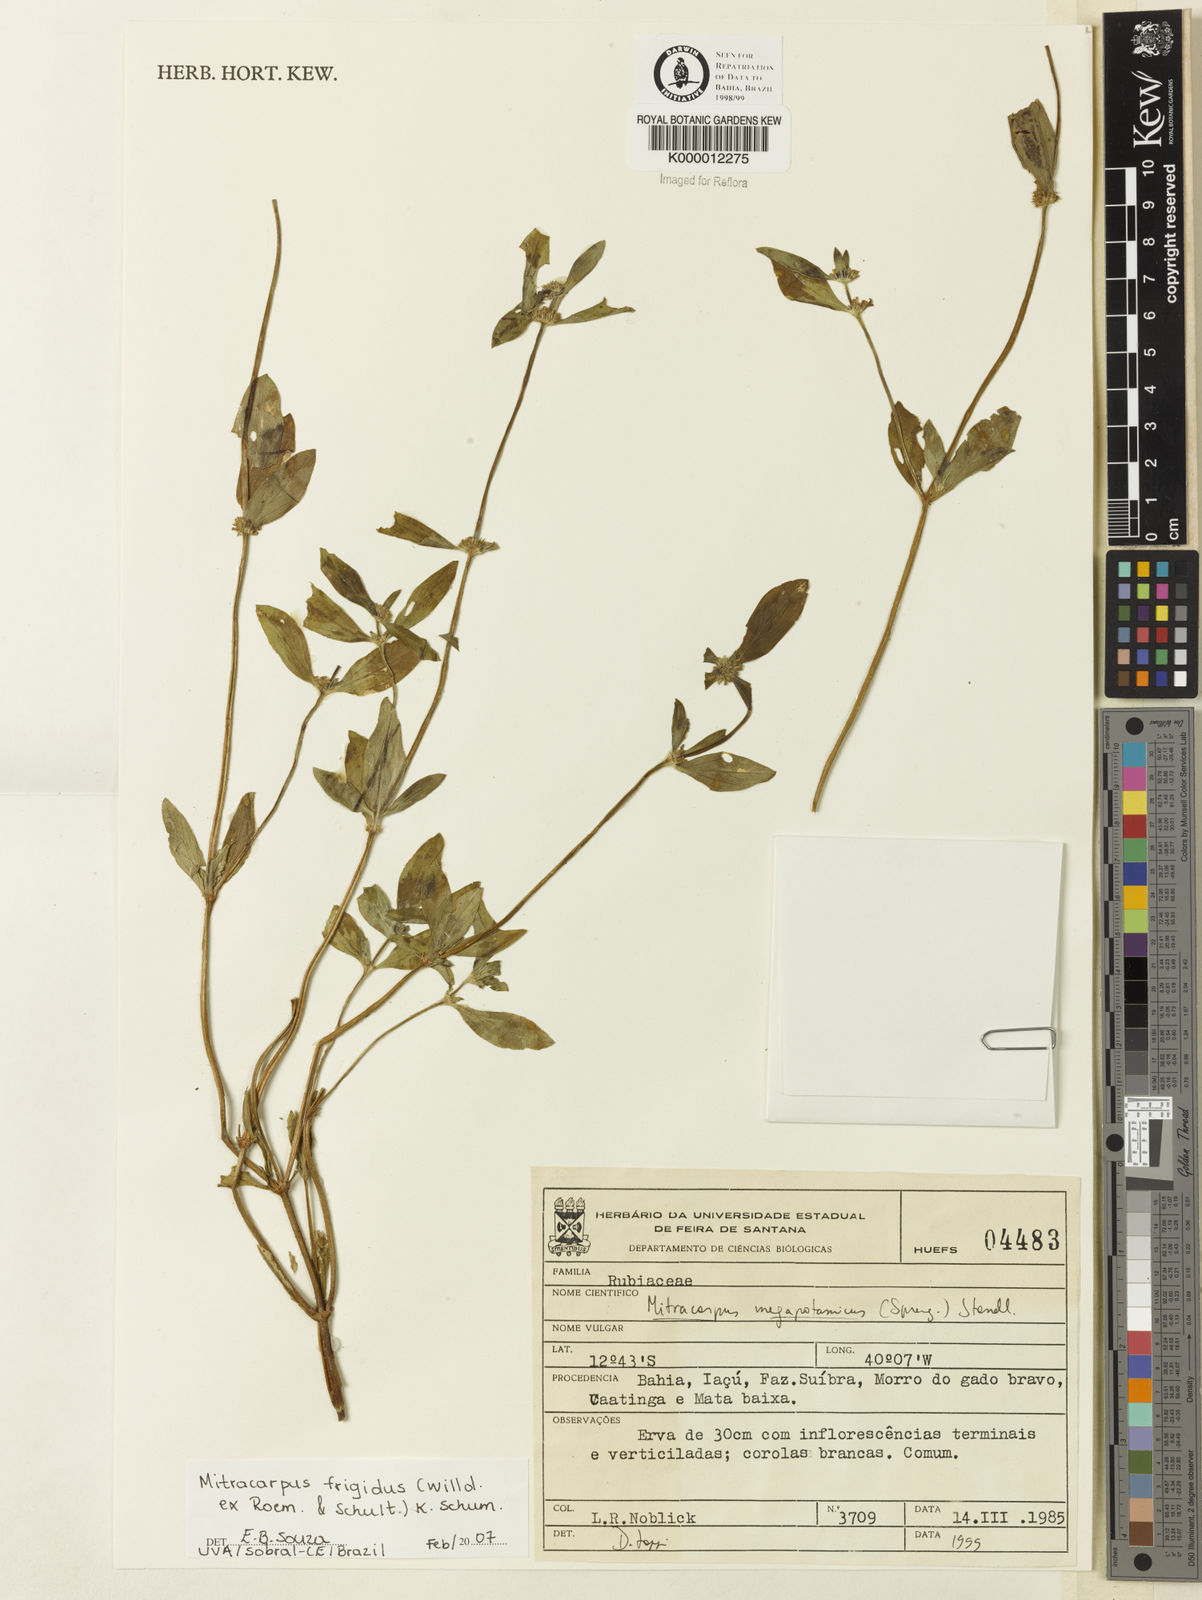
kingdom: Plantae
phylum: Tracheophyta
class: Magnoliopsida
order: Gentianales
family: Rubiaceae
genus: Mitracarpus
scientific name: Mitracarpus frigidus
